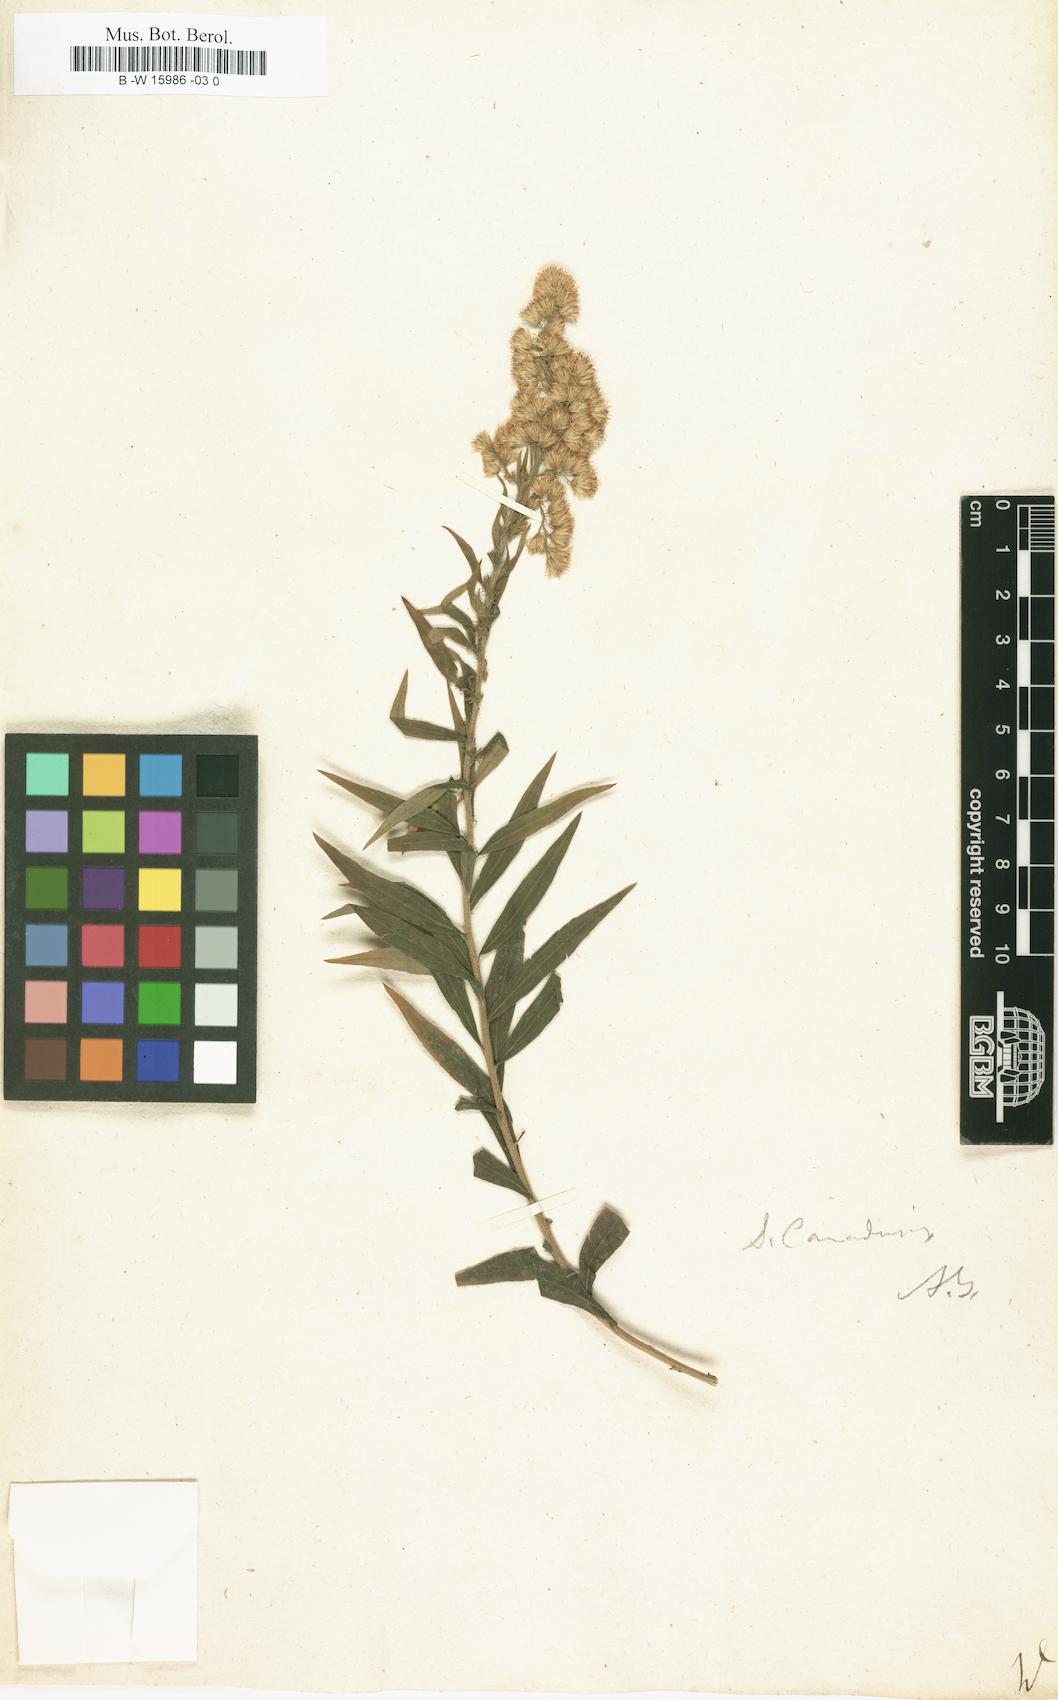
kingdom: Plantae
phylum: Tracheophyta
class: Magnoliopsida
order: Asterales
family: Asteraceae
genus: Solidago
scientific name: Solidago
